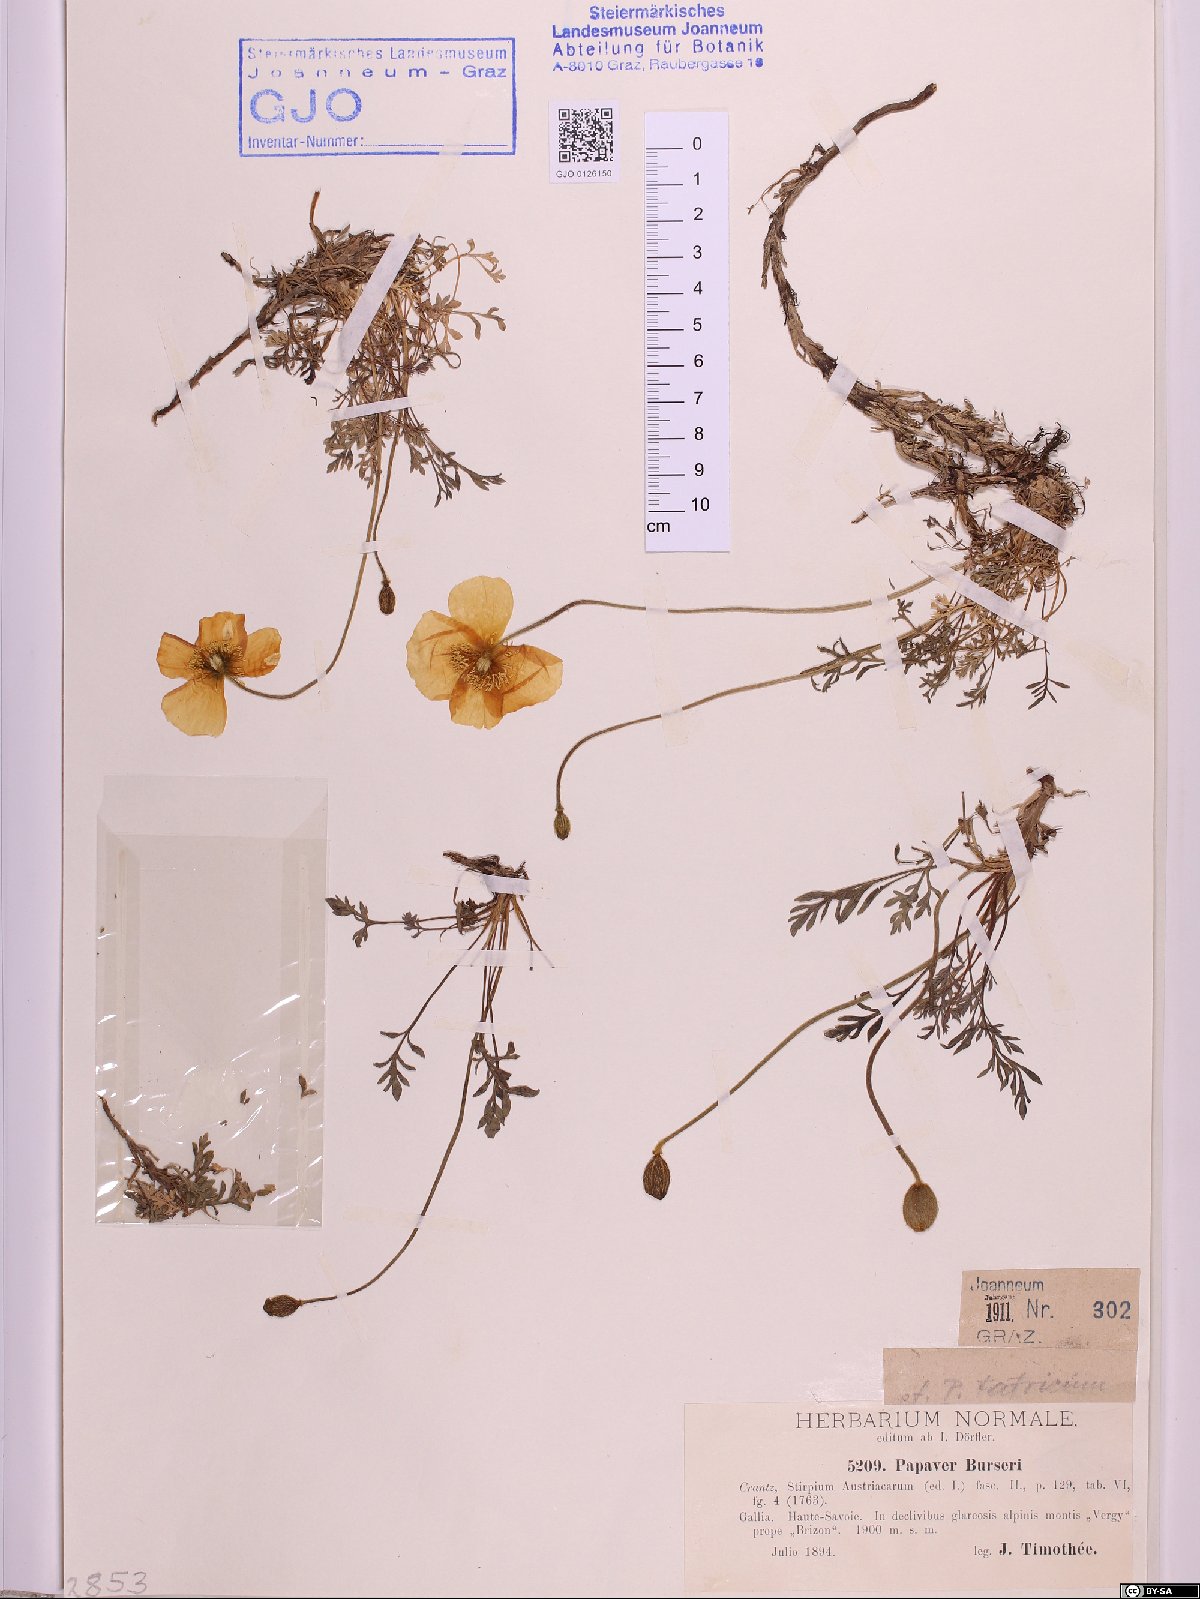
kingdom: Plantae
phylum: Tracheophyta
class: Magnoliopsida
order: Ranunculales
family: Papaveraceae
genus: Papaver
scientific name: Papaver alpinum
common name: Austrian poppy
